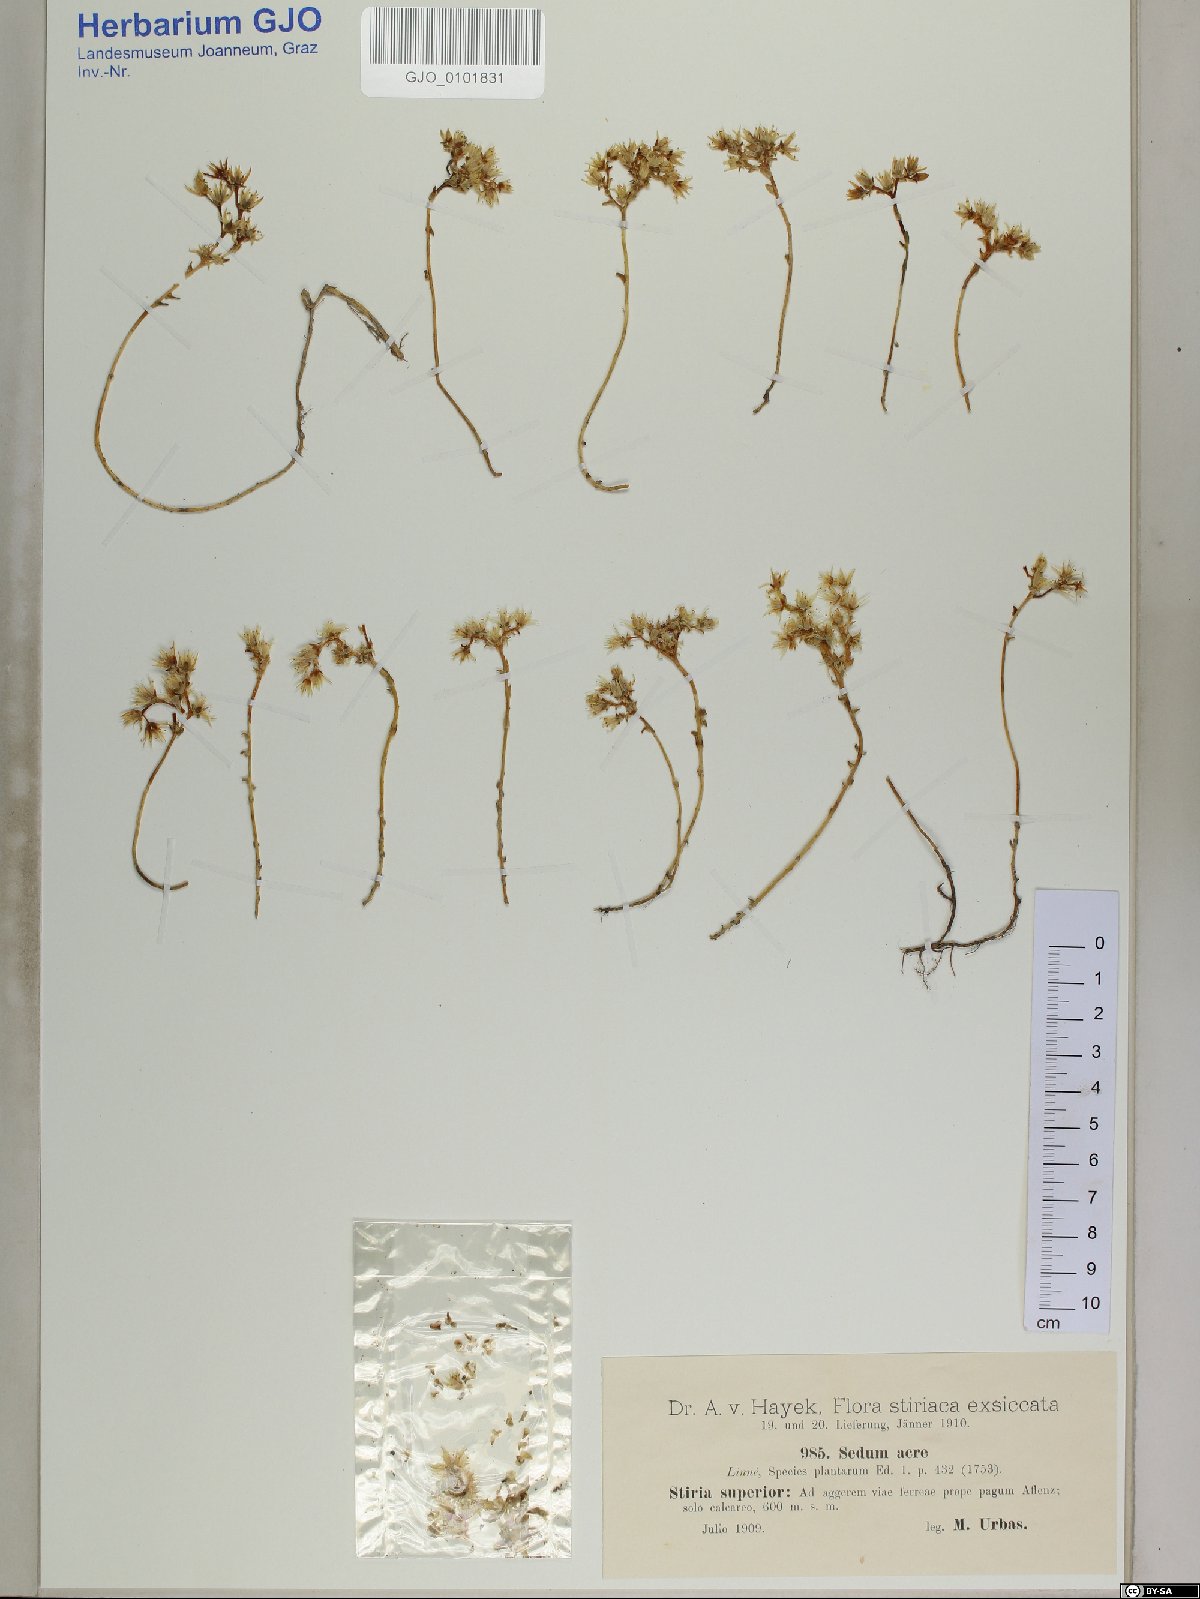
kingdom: Plantae
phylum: Tracheophyta
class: Magnoliopsida
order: Saxifragales
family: Crassulaceae
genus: Sedum
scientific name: Sedum acre
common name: Biting stonecrop
